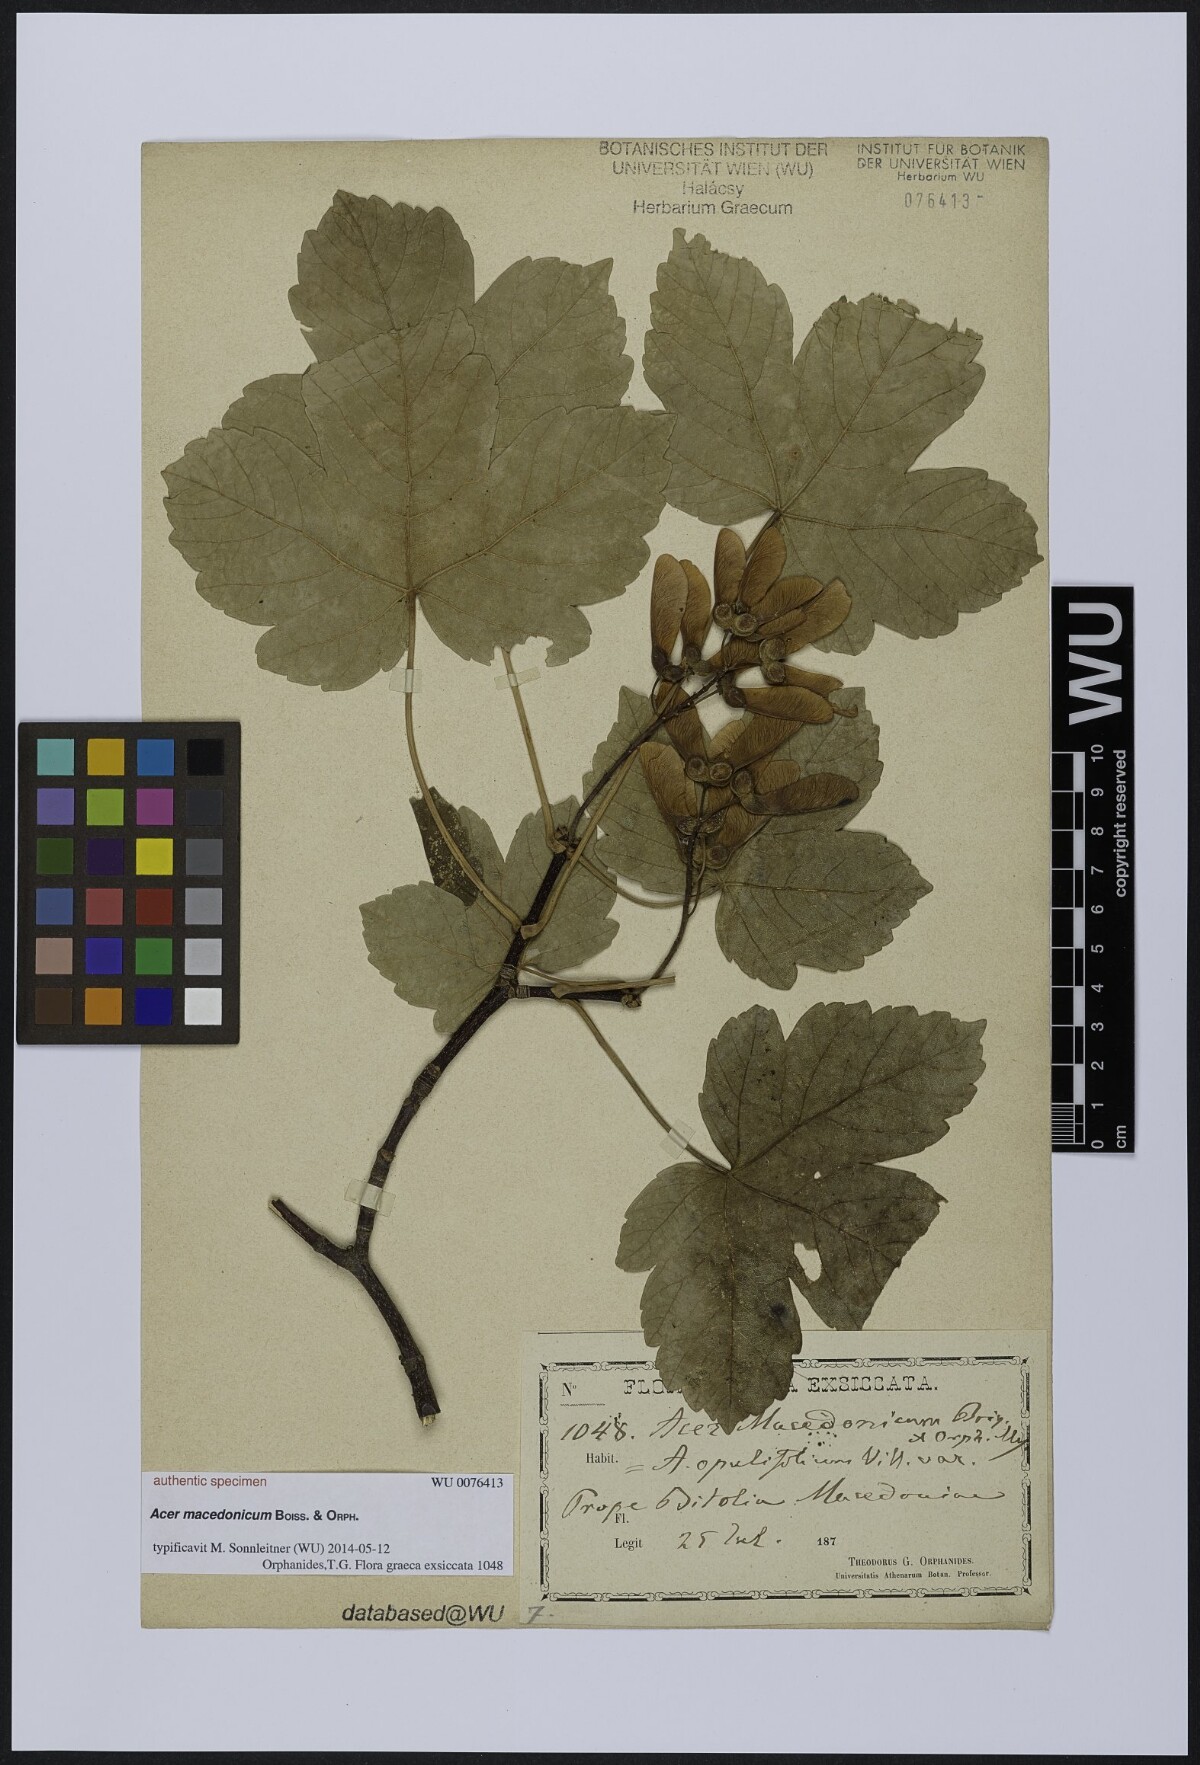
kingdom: Plantae
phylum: Tracheophyta
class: Magnoliopsida
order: Sapindales
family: Sapindaceae
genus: Acer
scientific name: Acer
